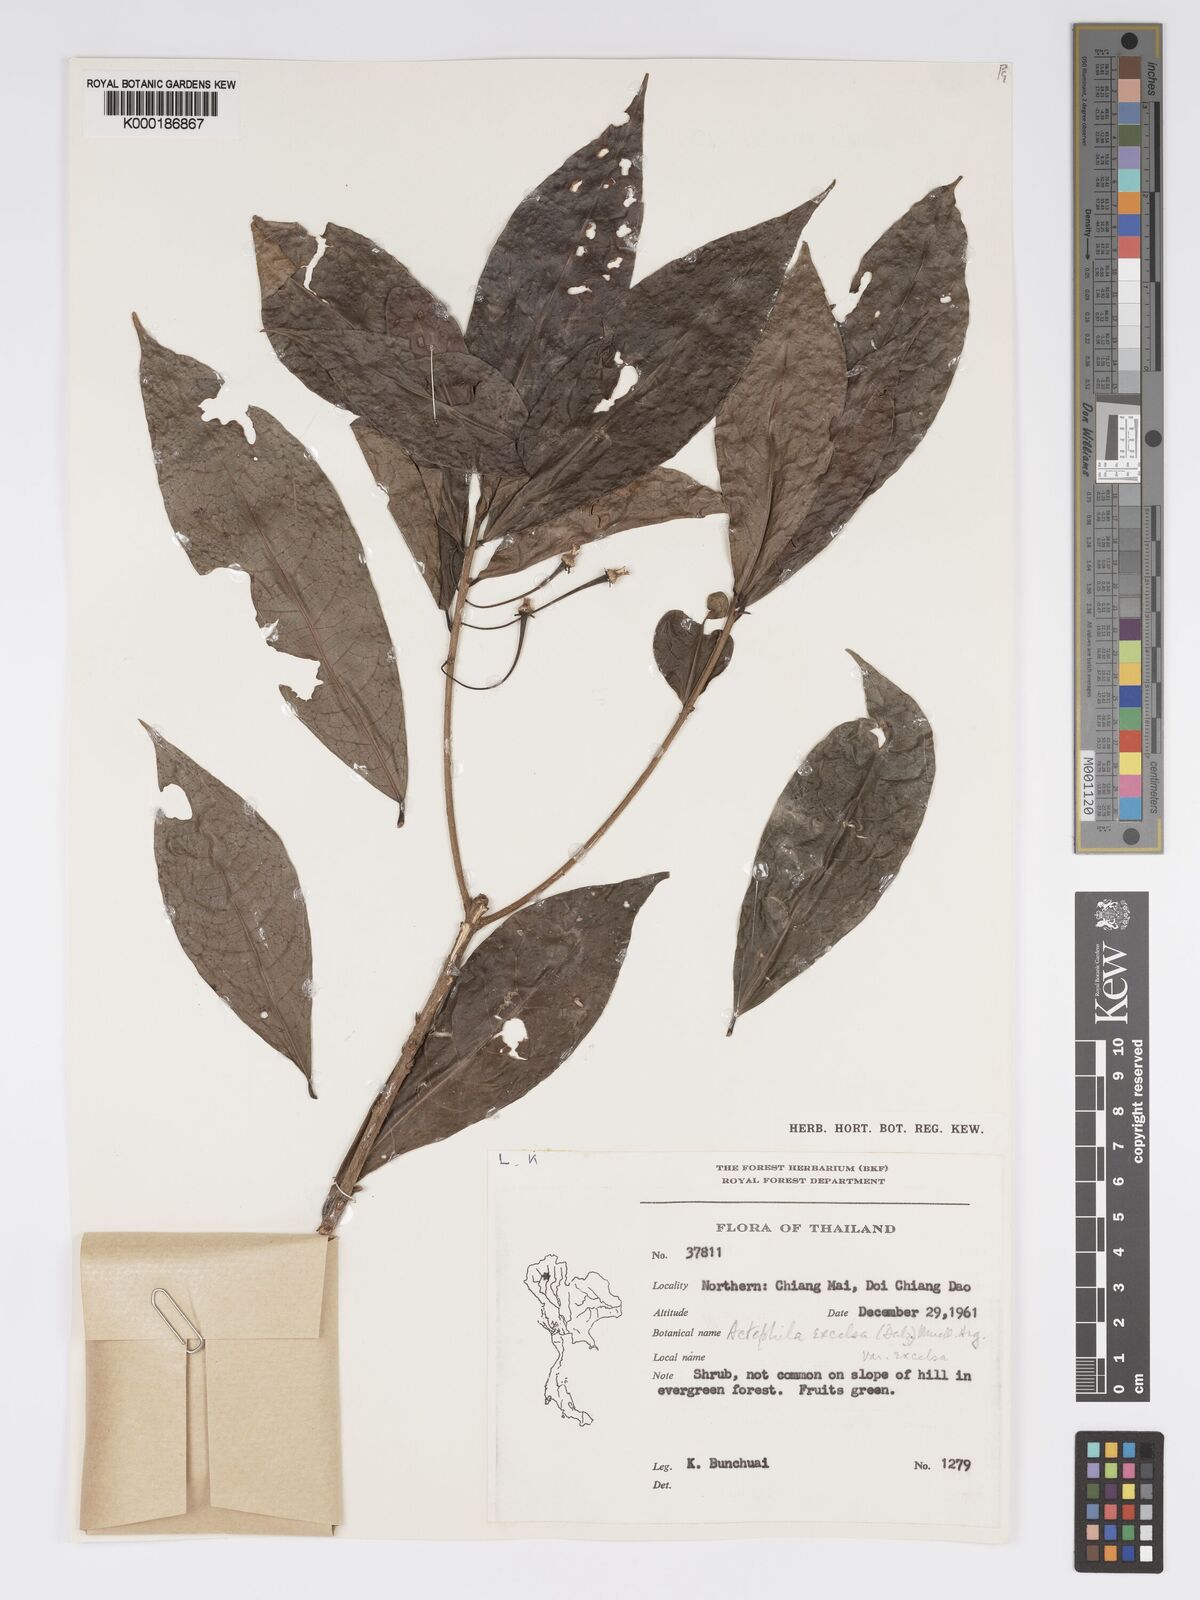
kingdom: Plantae
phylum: Tracheophyta
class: Magnoliopsida
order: Malpighiales
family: Phyllanthaceae
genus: Actephila
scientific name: Actephila
